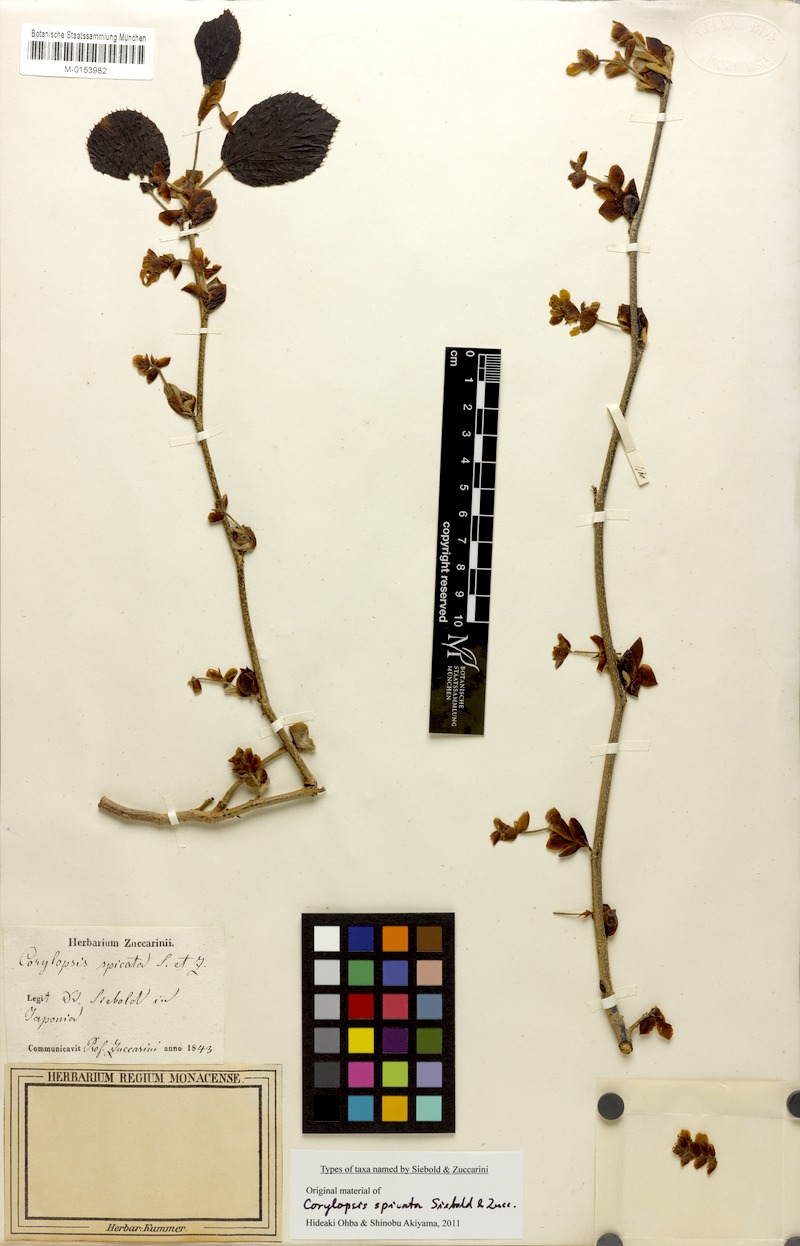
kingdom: Plantae
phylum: Tracheophyta
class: Magnoliopsida
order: Saxifragales
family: Hamamelidaceae
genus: Corylopsis
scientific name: Corylopsis spicata
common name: Spike winter-hazel
